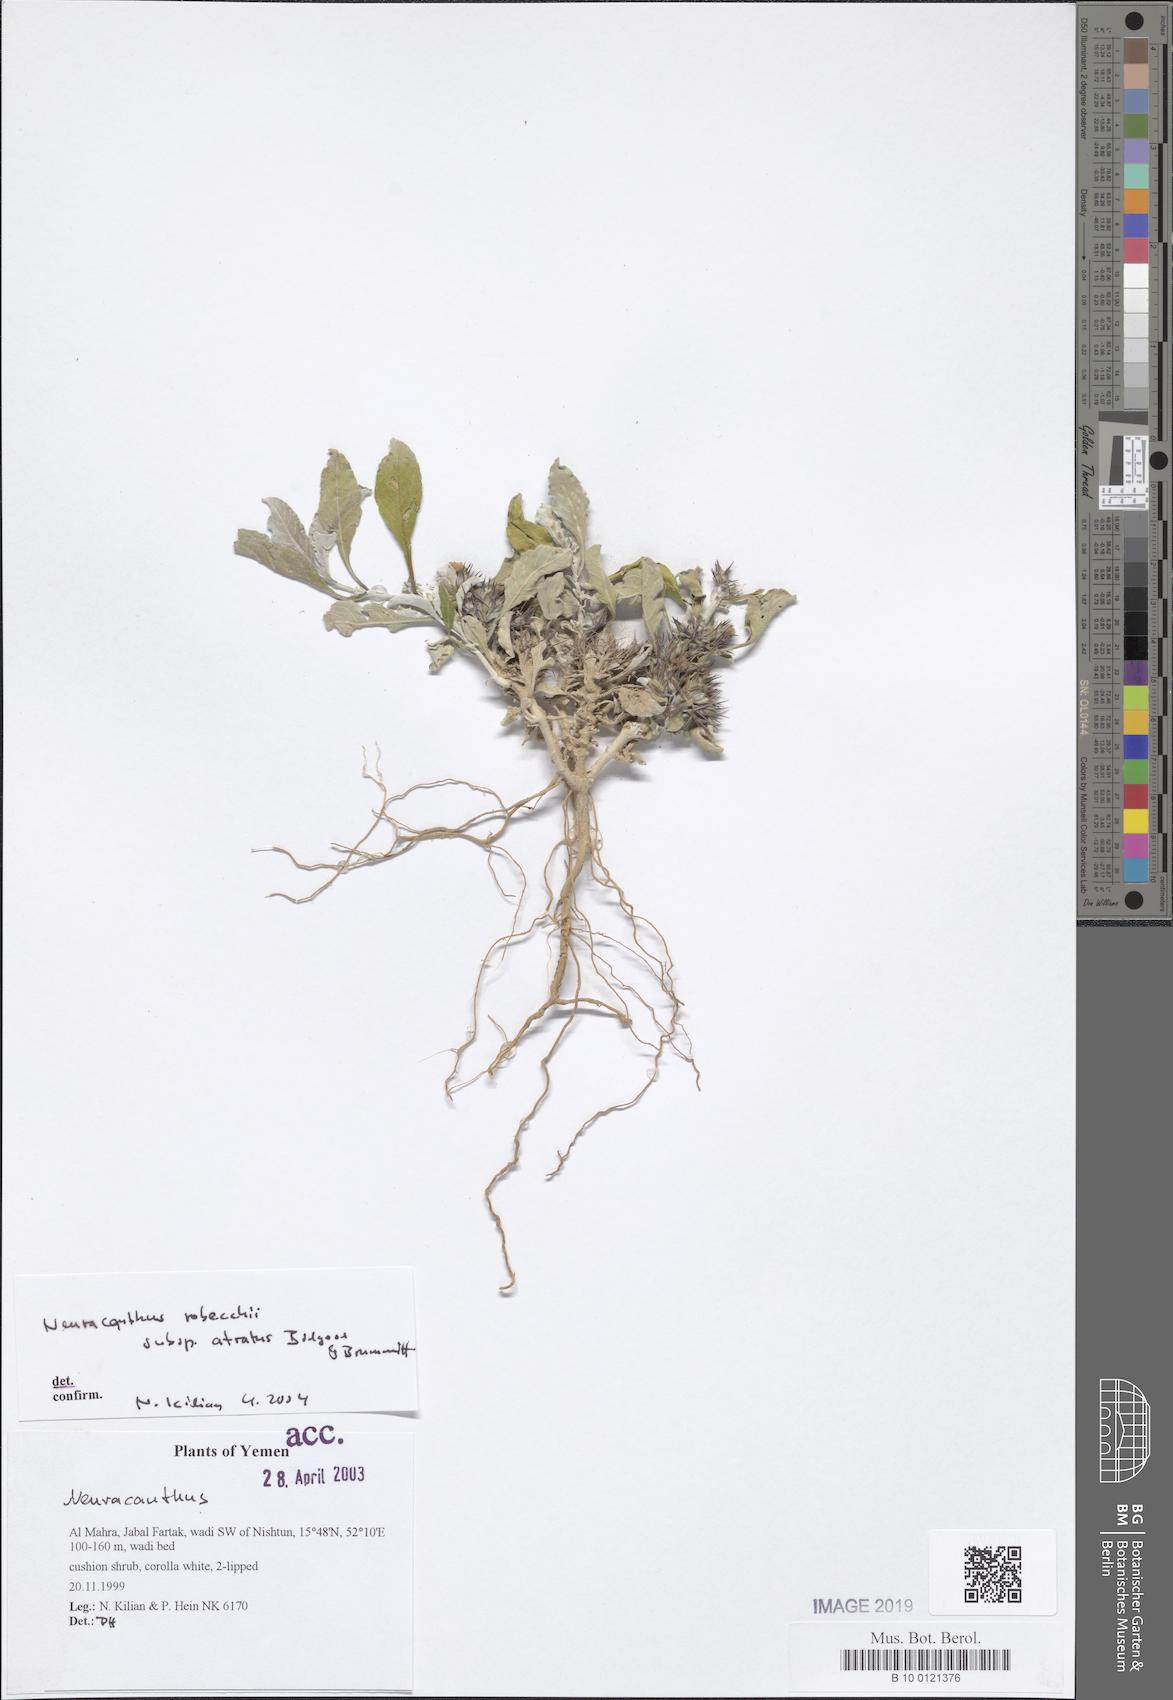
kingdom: Plantae
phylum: Tracheophyta
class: Magnoliopsida
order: Lamiales
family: Acanthaceae
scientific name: Acanthaceae
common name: Acanthaceae
